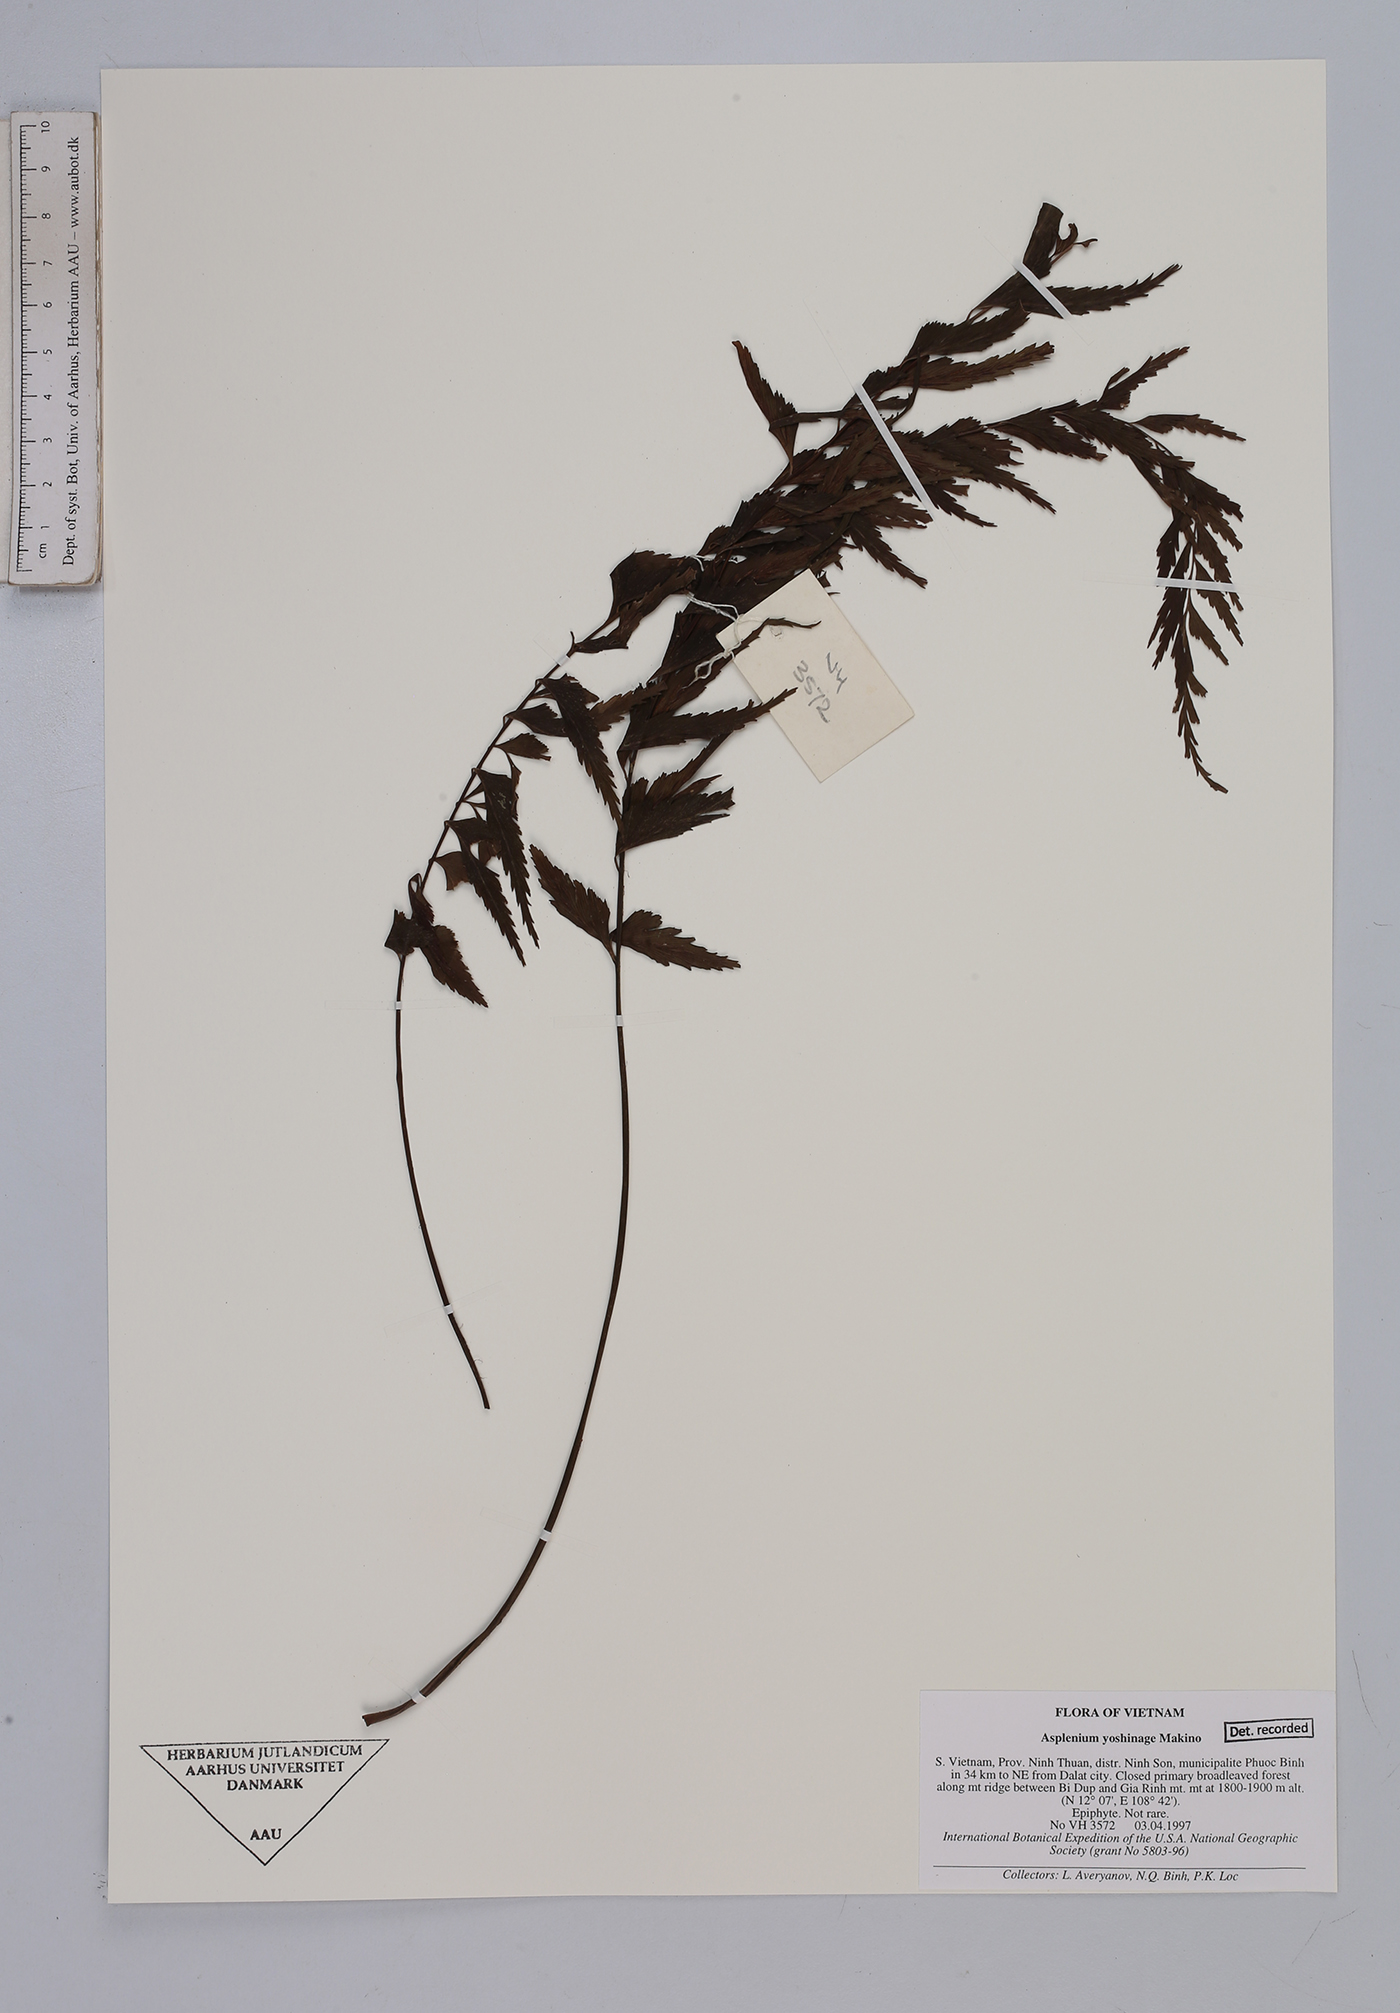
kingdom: Plantae
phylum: Tracheophyta
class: Polypodiopsida
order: Polypodiales
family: Aspleniaceae
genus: Asplenium
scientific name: Asplenium yoshinagae
